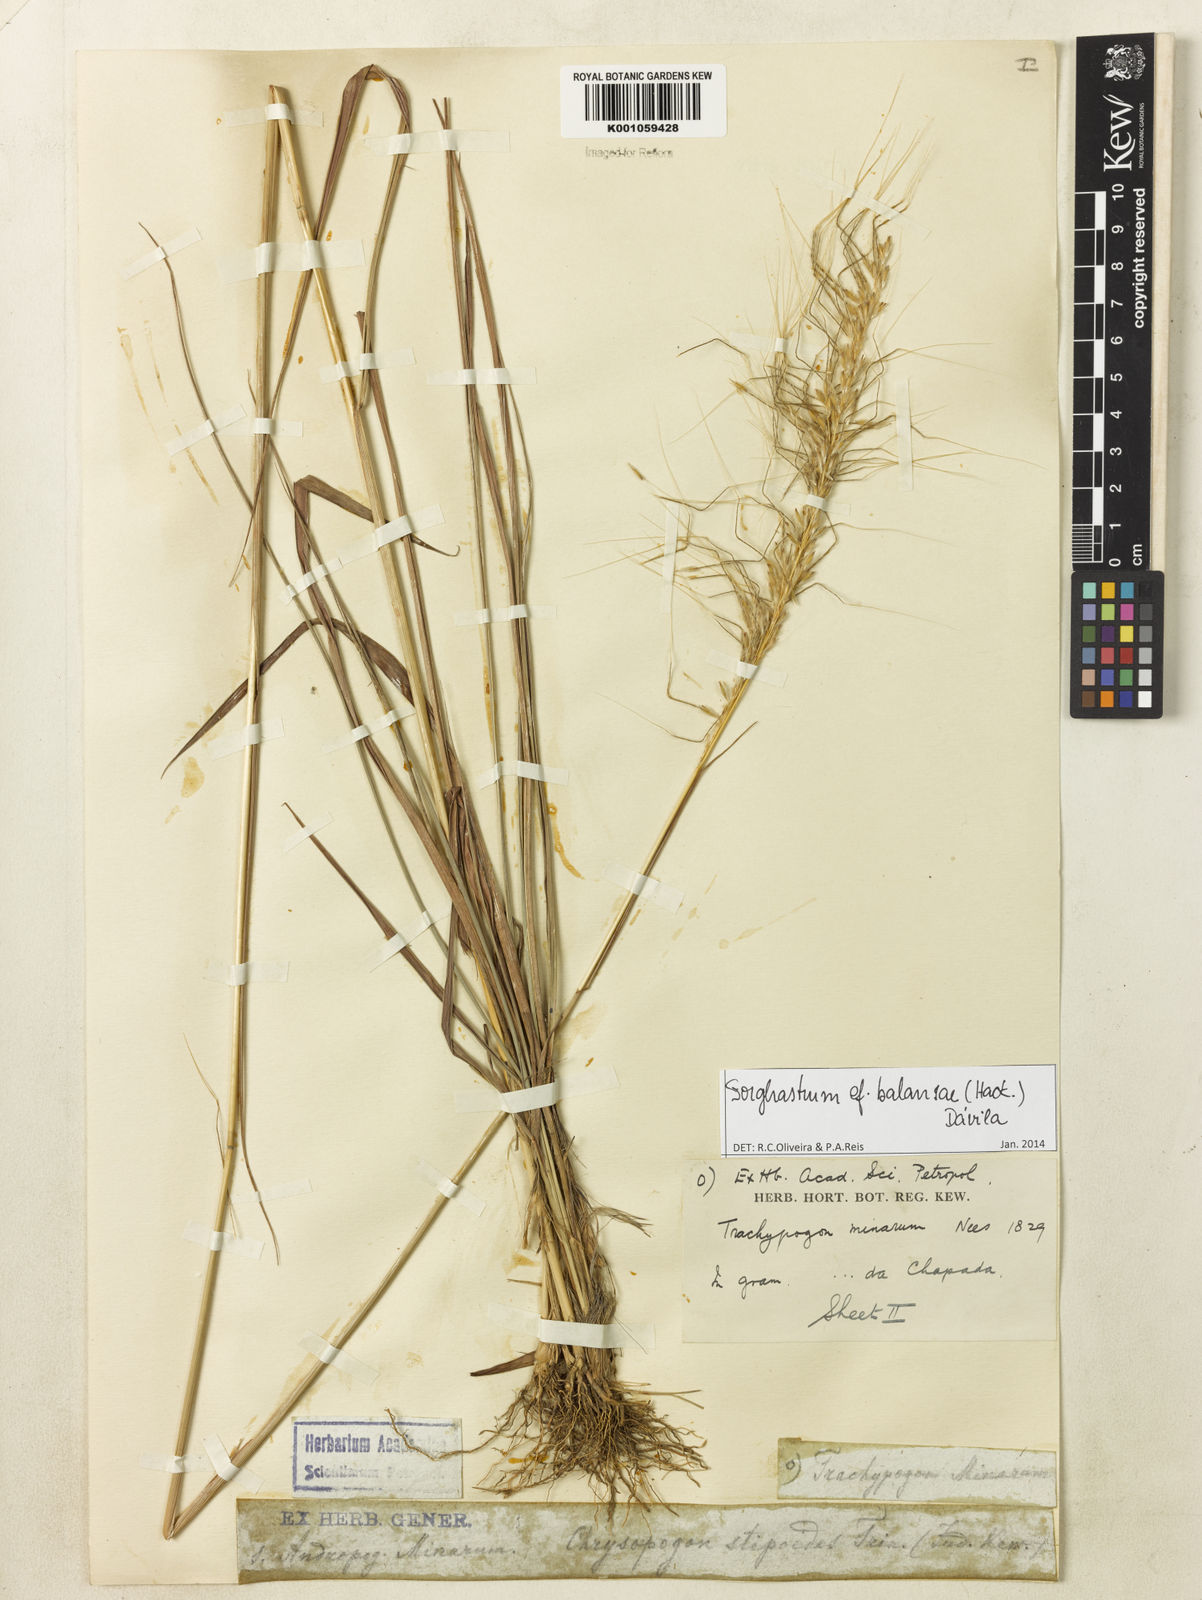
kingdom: Plantae
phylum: Tracheophyta
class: Liliopsida
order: Poales
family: Poaceae
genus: Sorghastrum
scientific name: Sorghastrum
